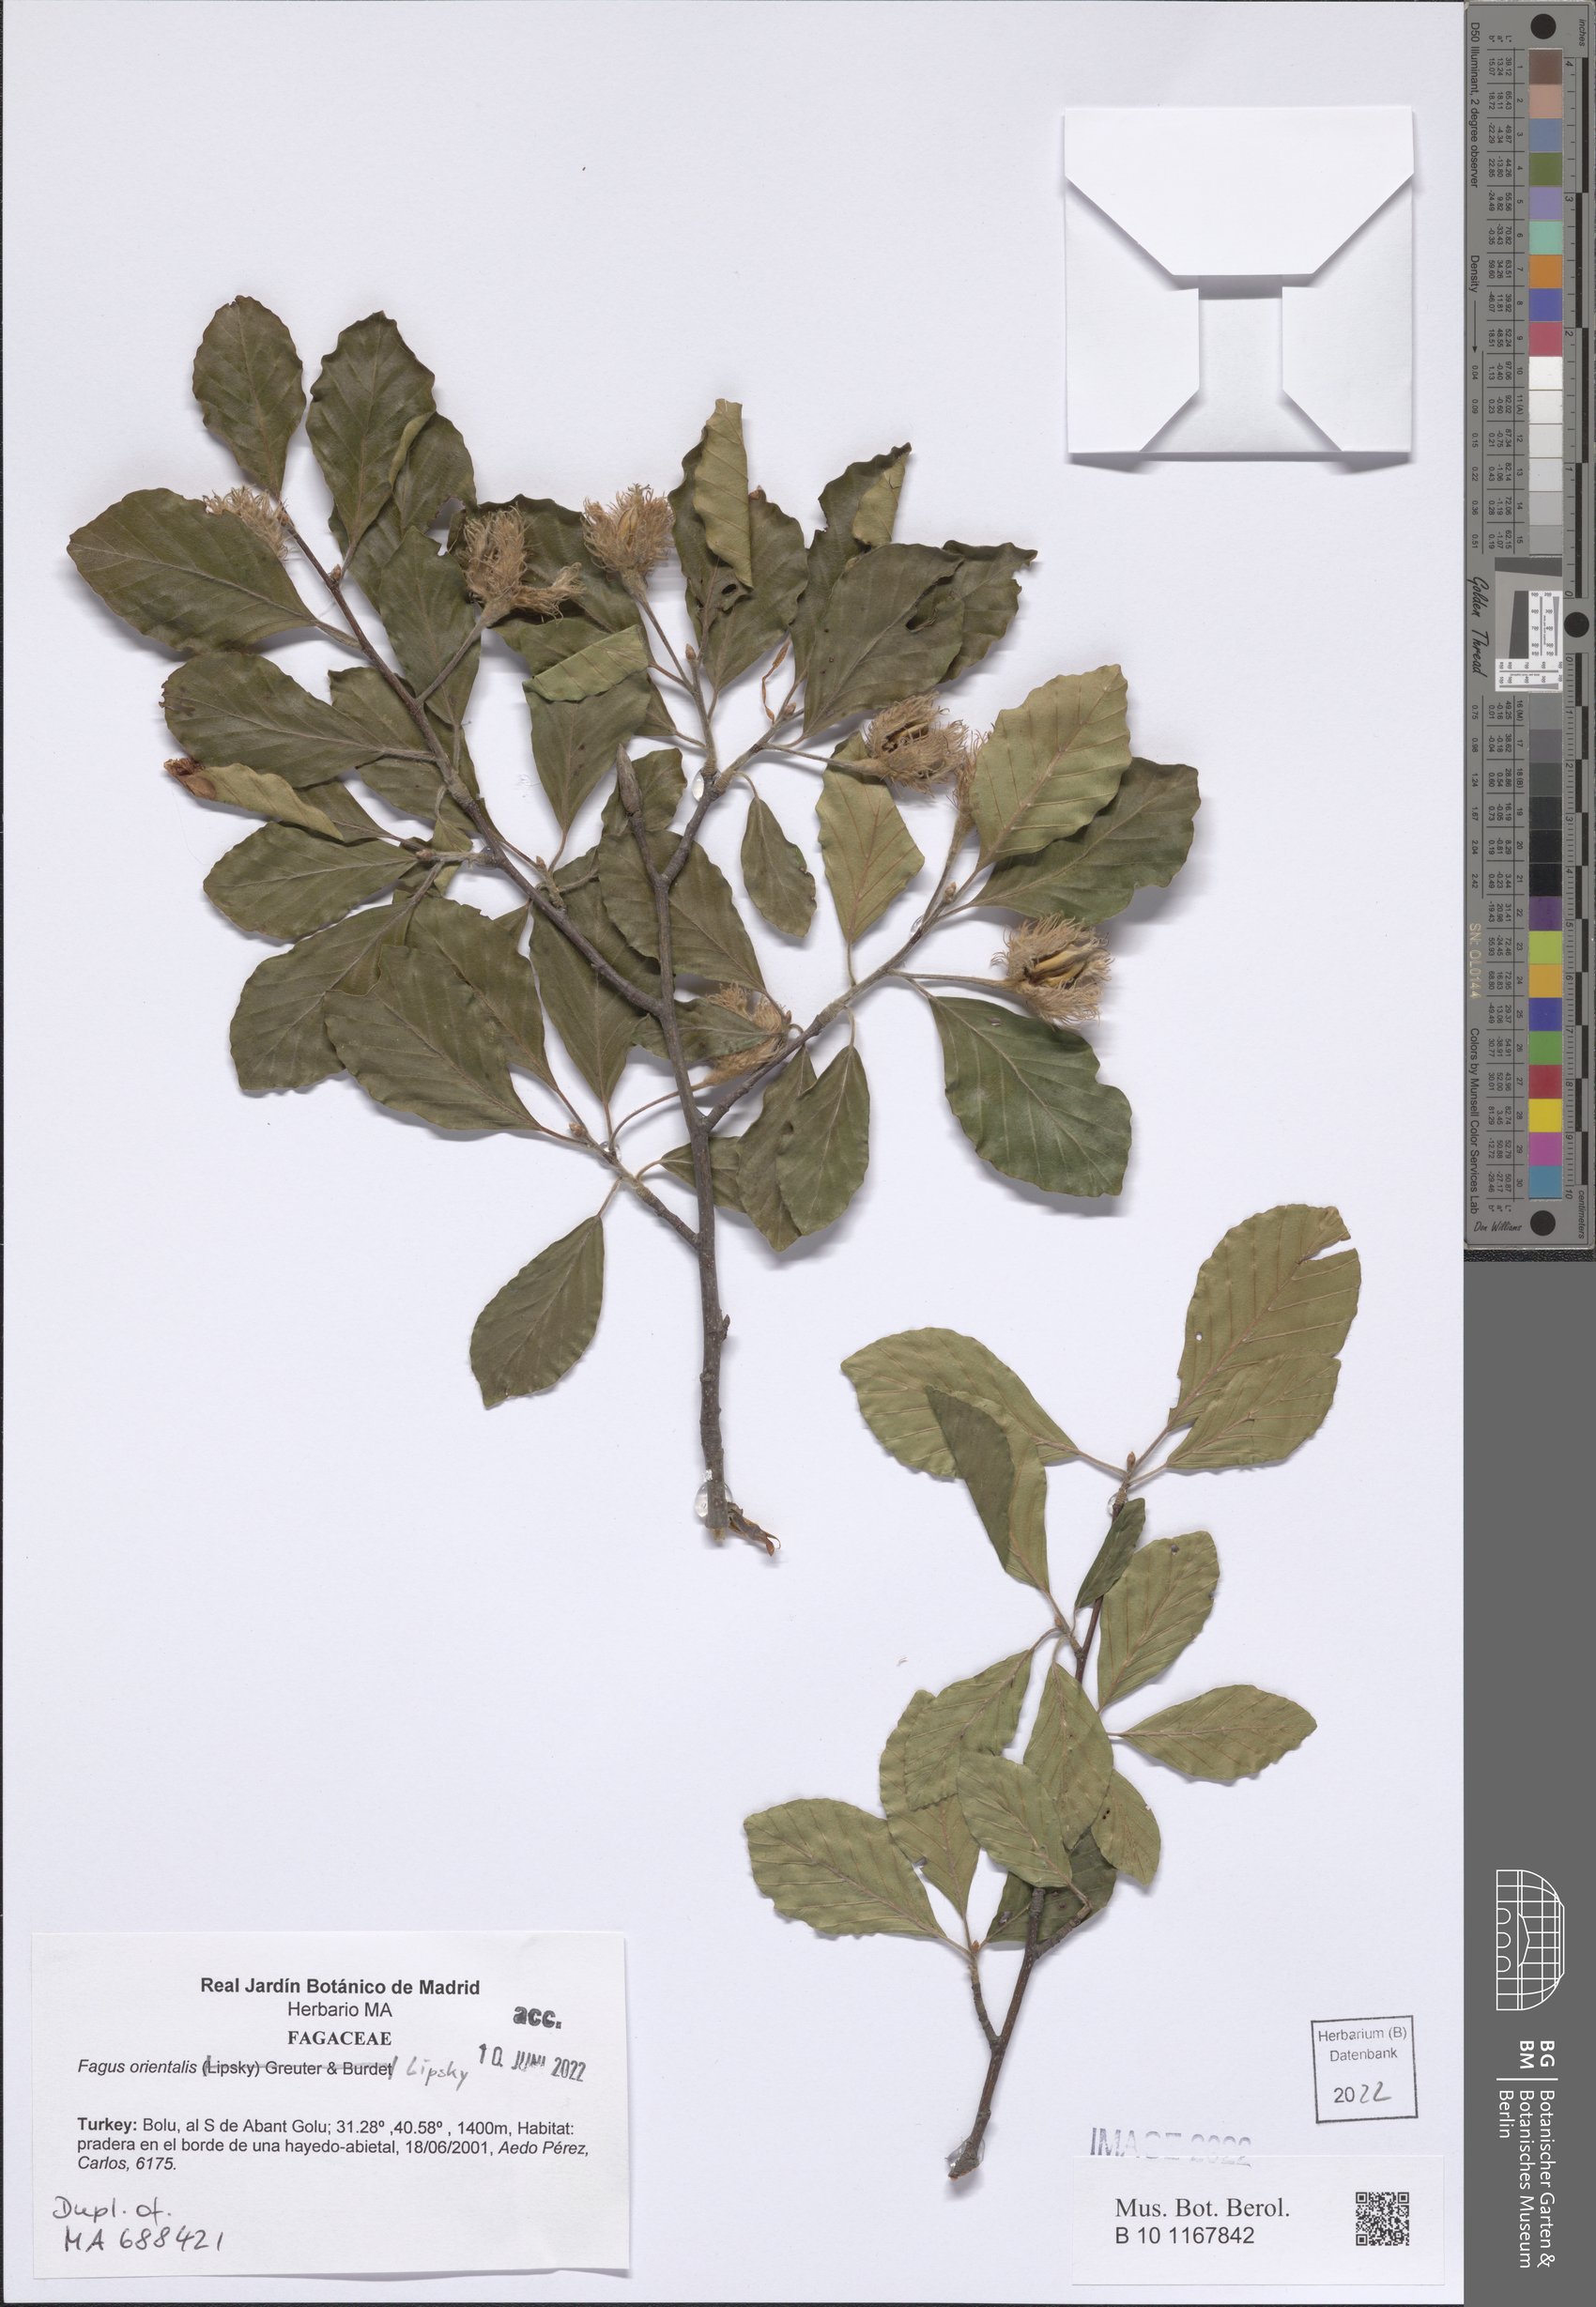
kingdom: Plantae
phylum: Tracheophyta
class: Magnoliopsida
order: Fagales
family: Fagaceae
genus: Fagus
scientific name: Fagus orientalis
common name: Oriental beech
